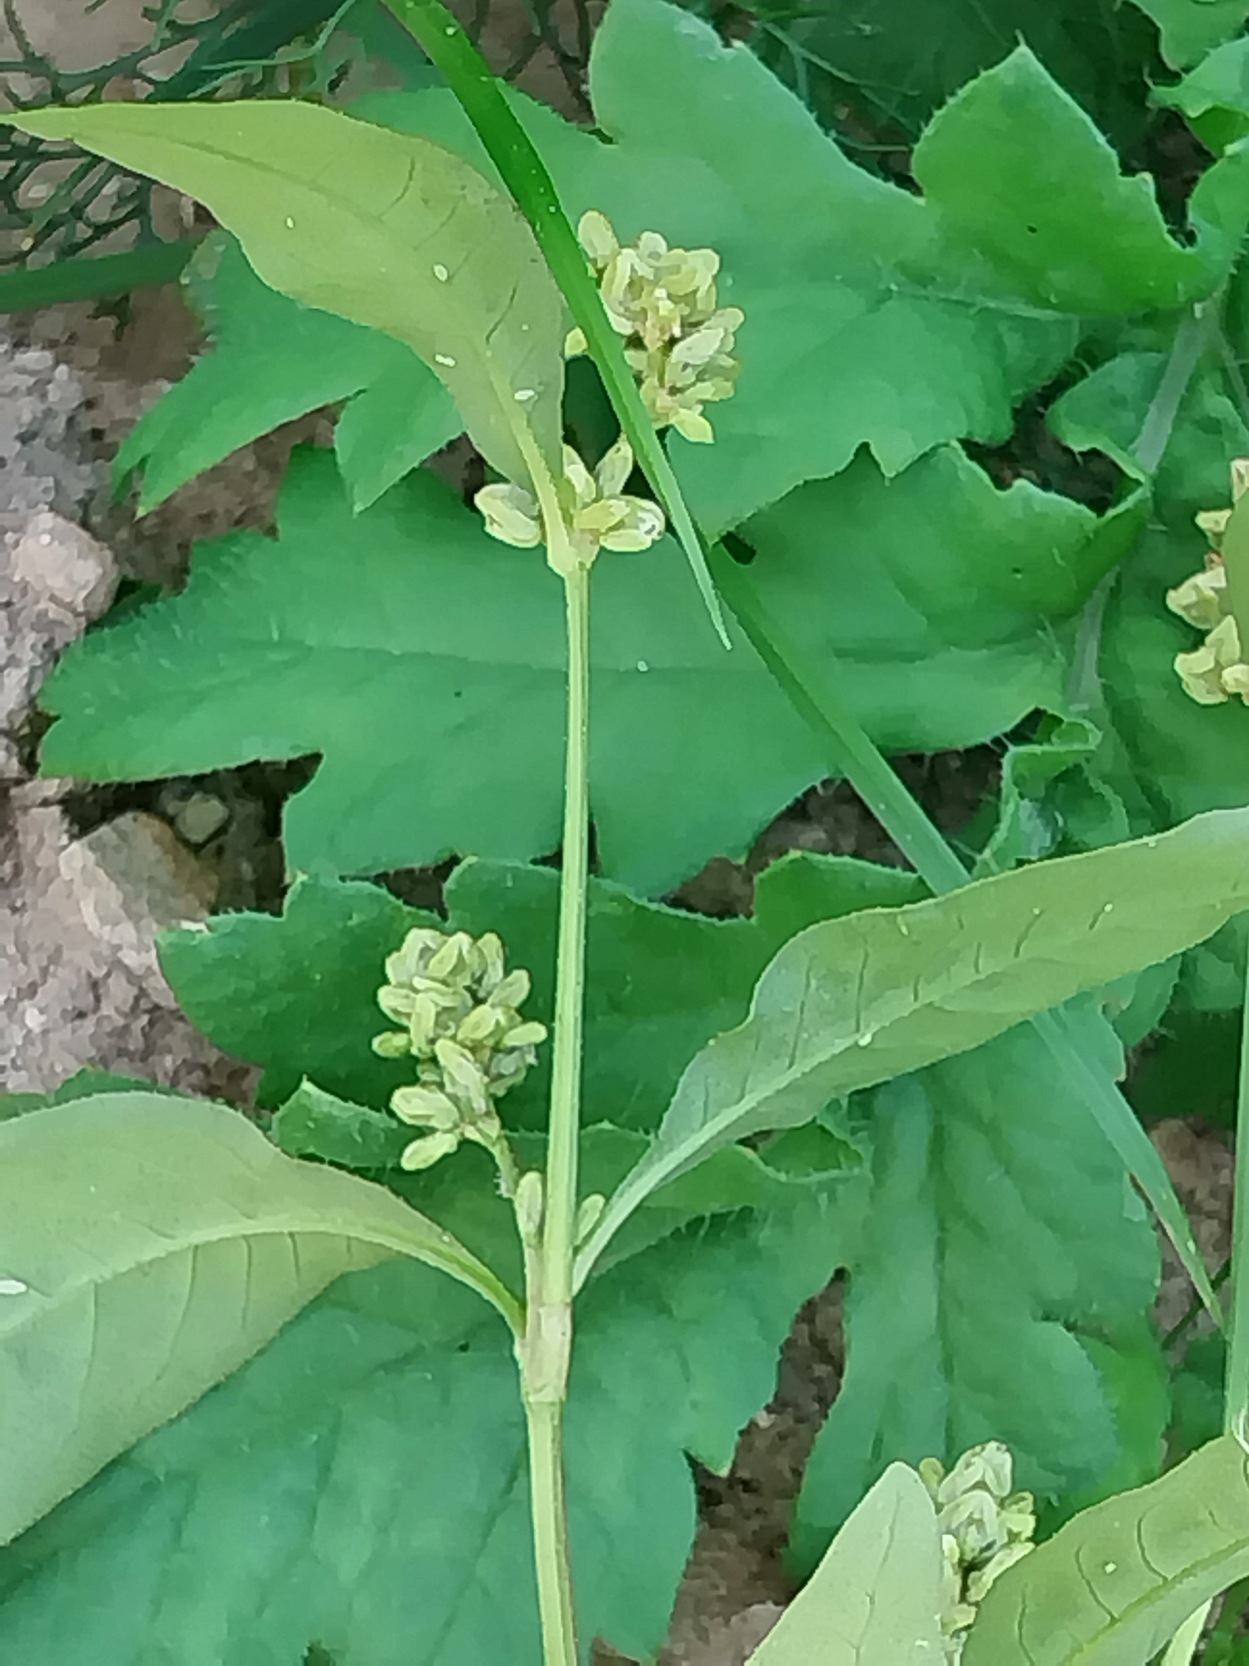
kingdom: Plantae
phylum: Tracheophyta
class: Magnoliopsida
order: Caryophyllales
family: Polygonaceae
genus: Persicaria
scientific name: Persicaria lapathifolia
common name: Knudet pileurt
